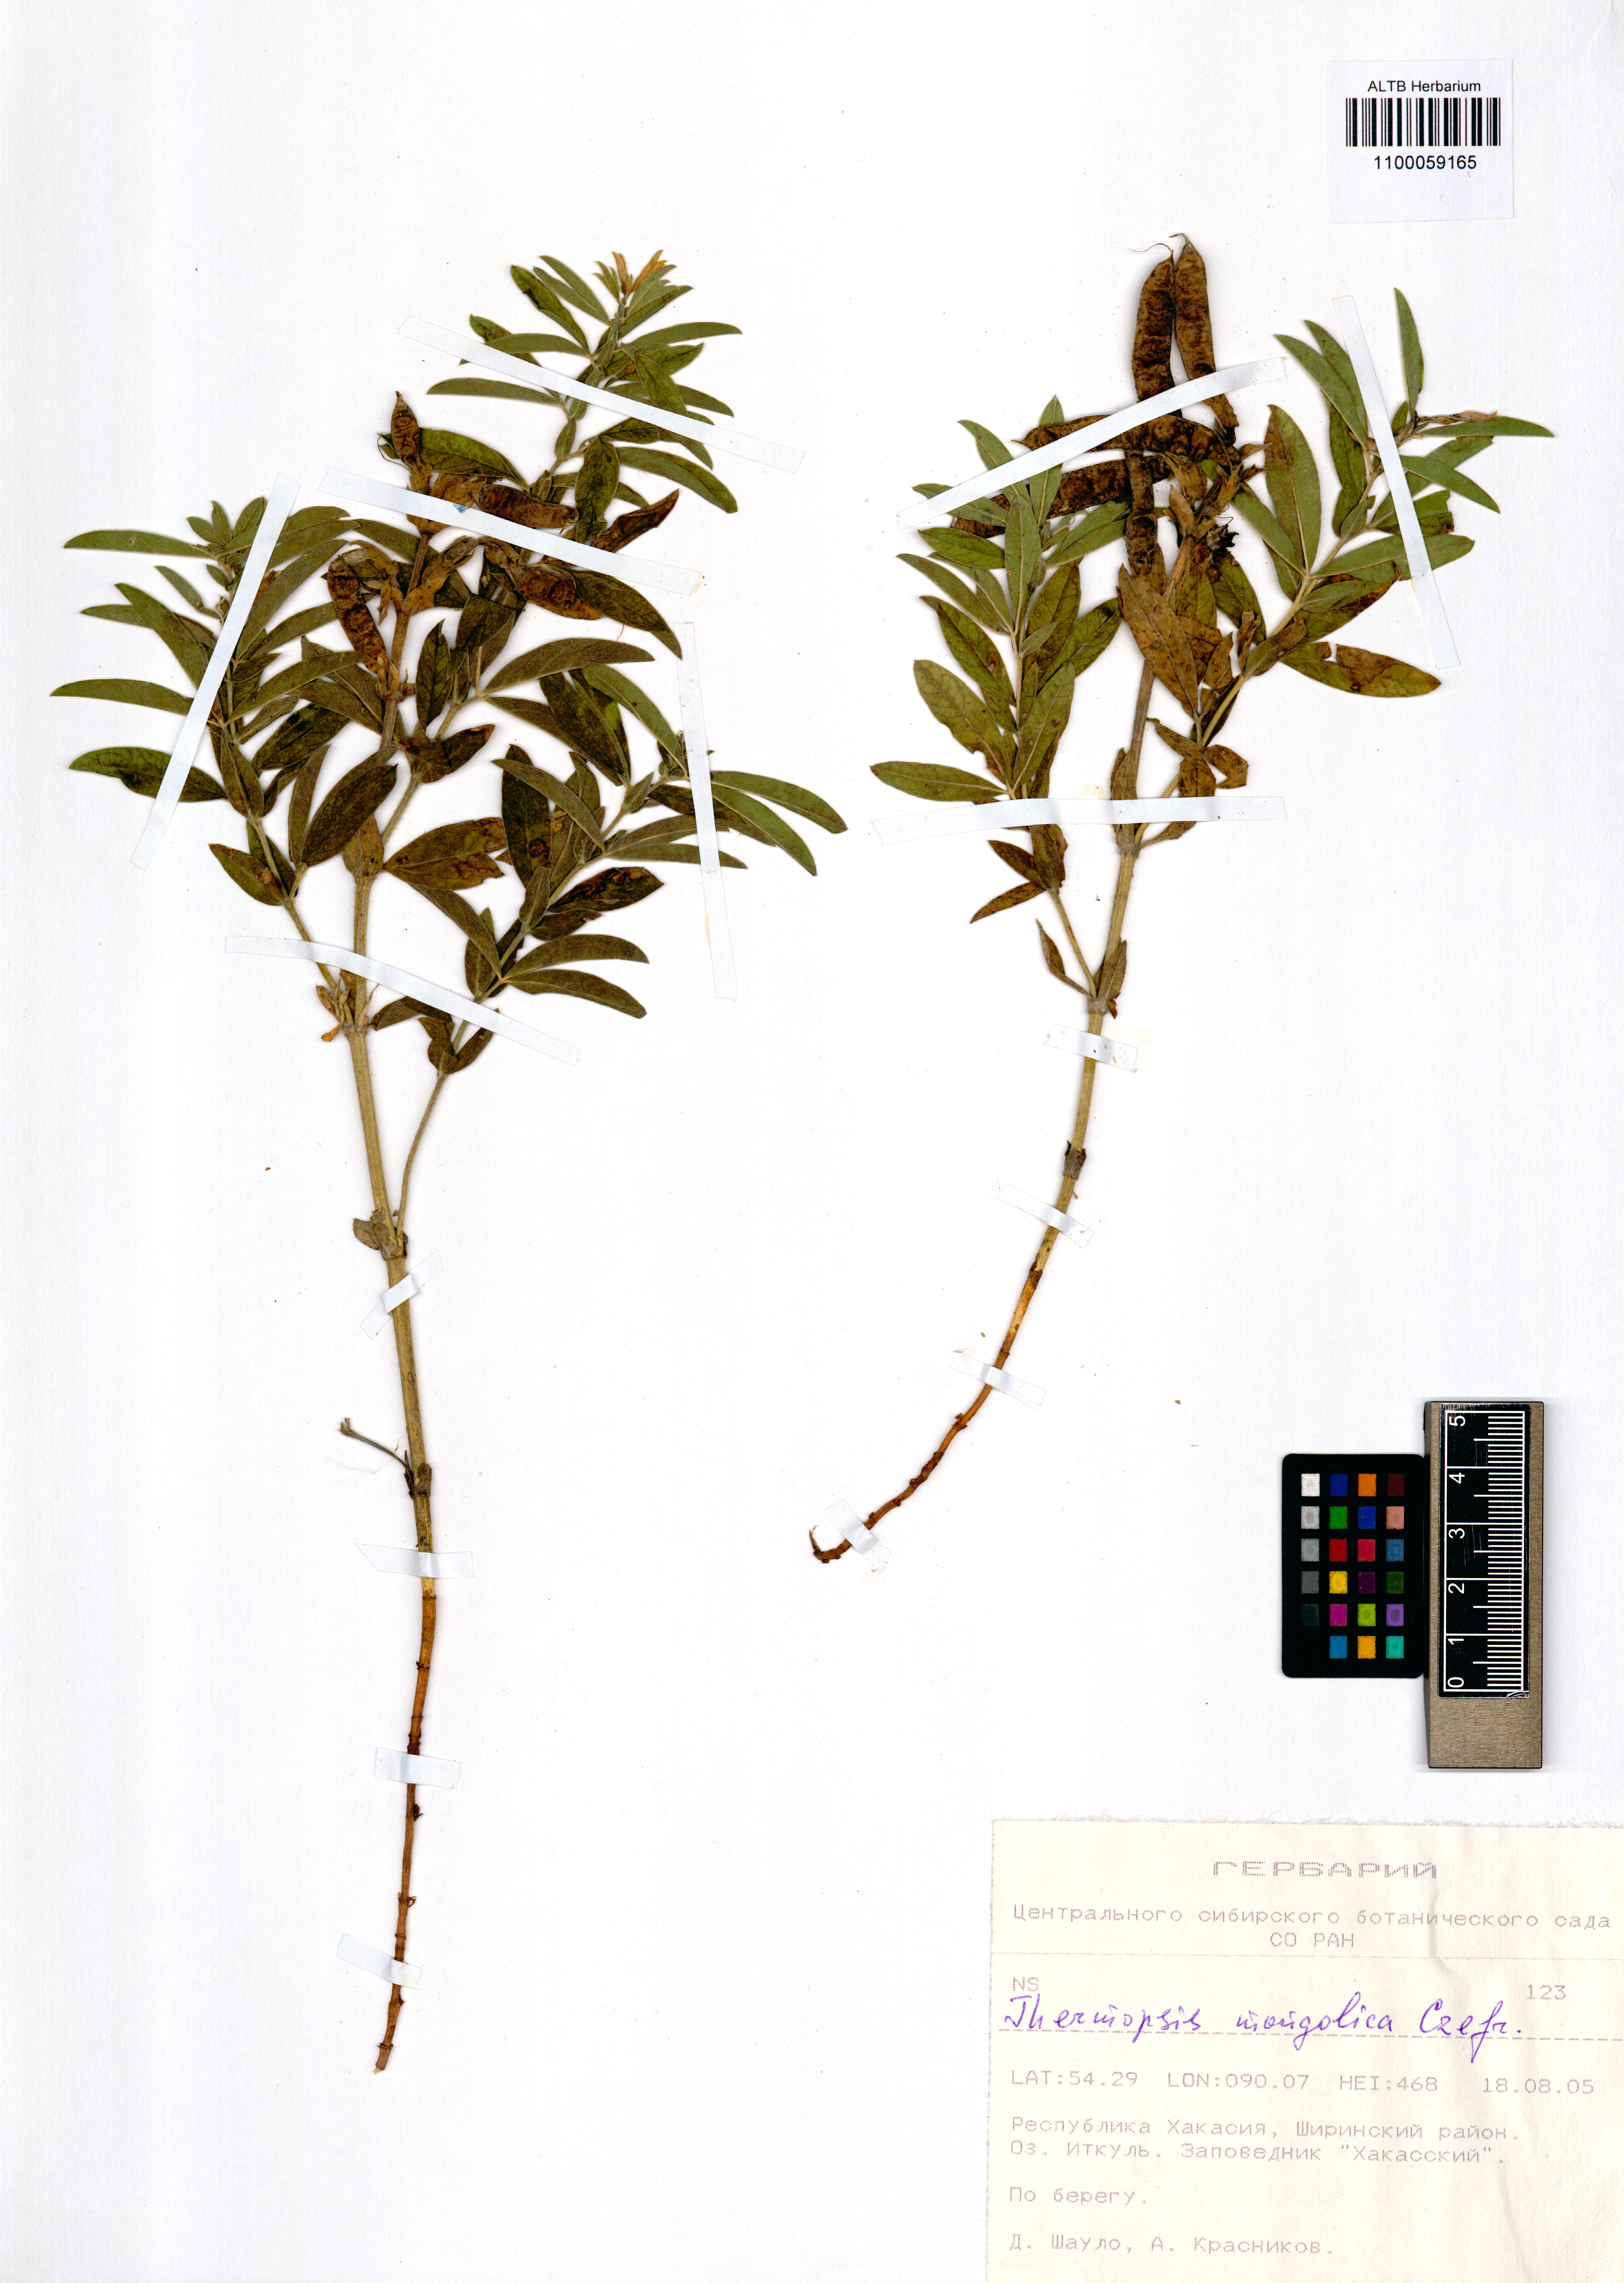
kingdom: Plantae
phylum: Tracheophyta
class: Magnoliopsida
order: Fabales
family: Fabaceae
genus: Thermopsis
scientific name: Thermopsis mongolica
